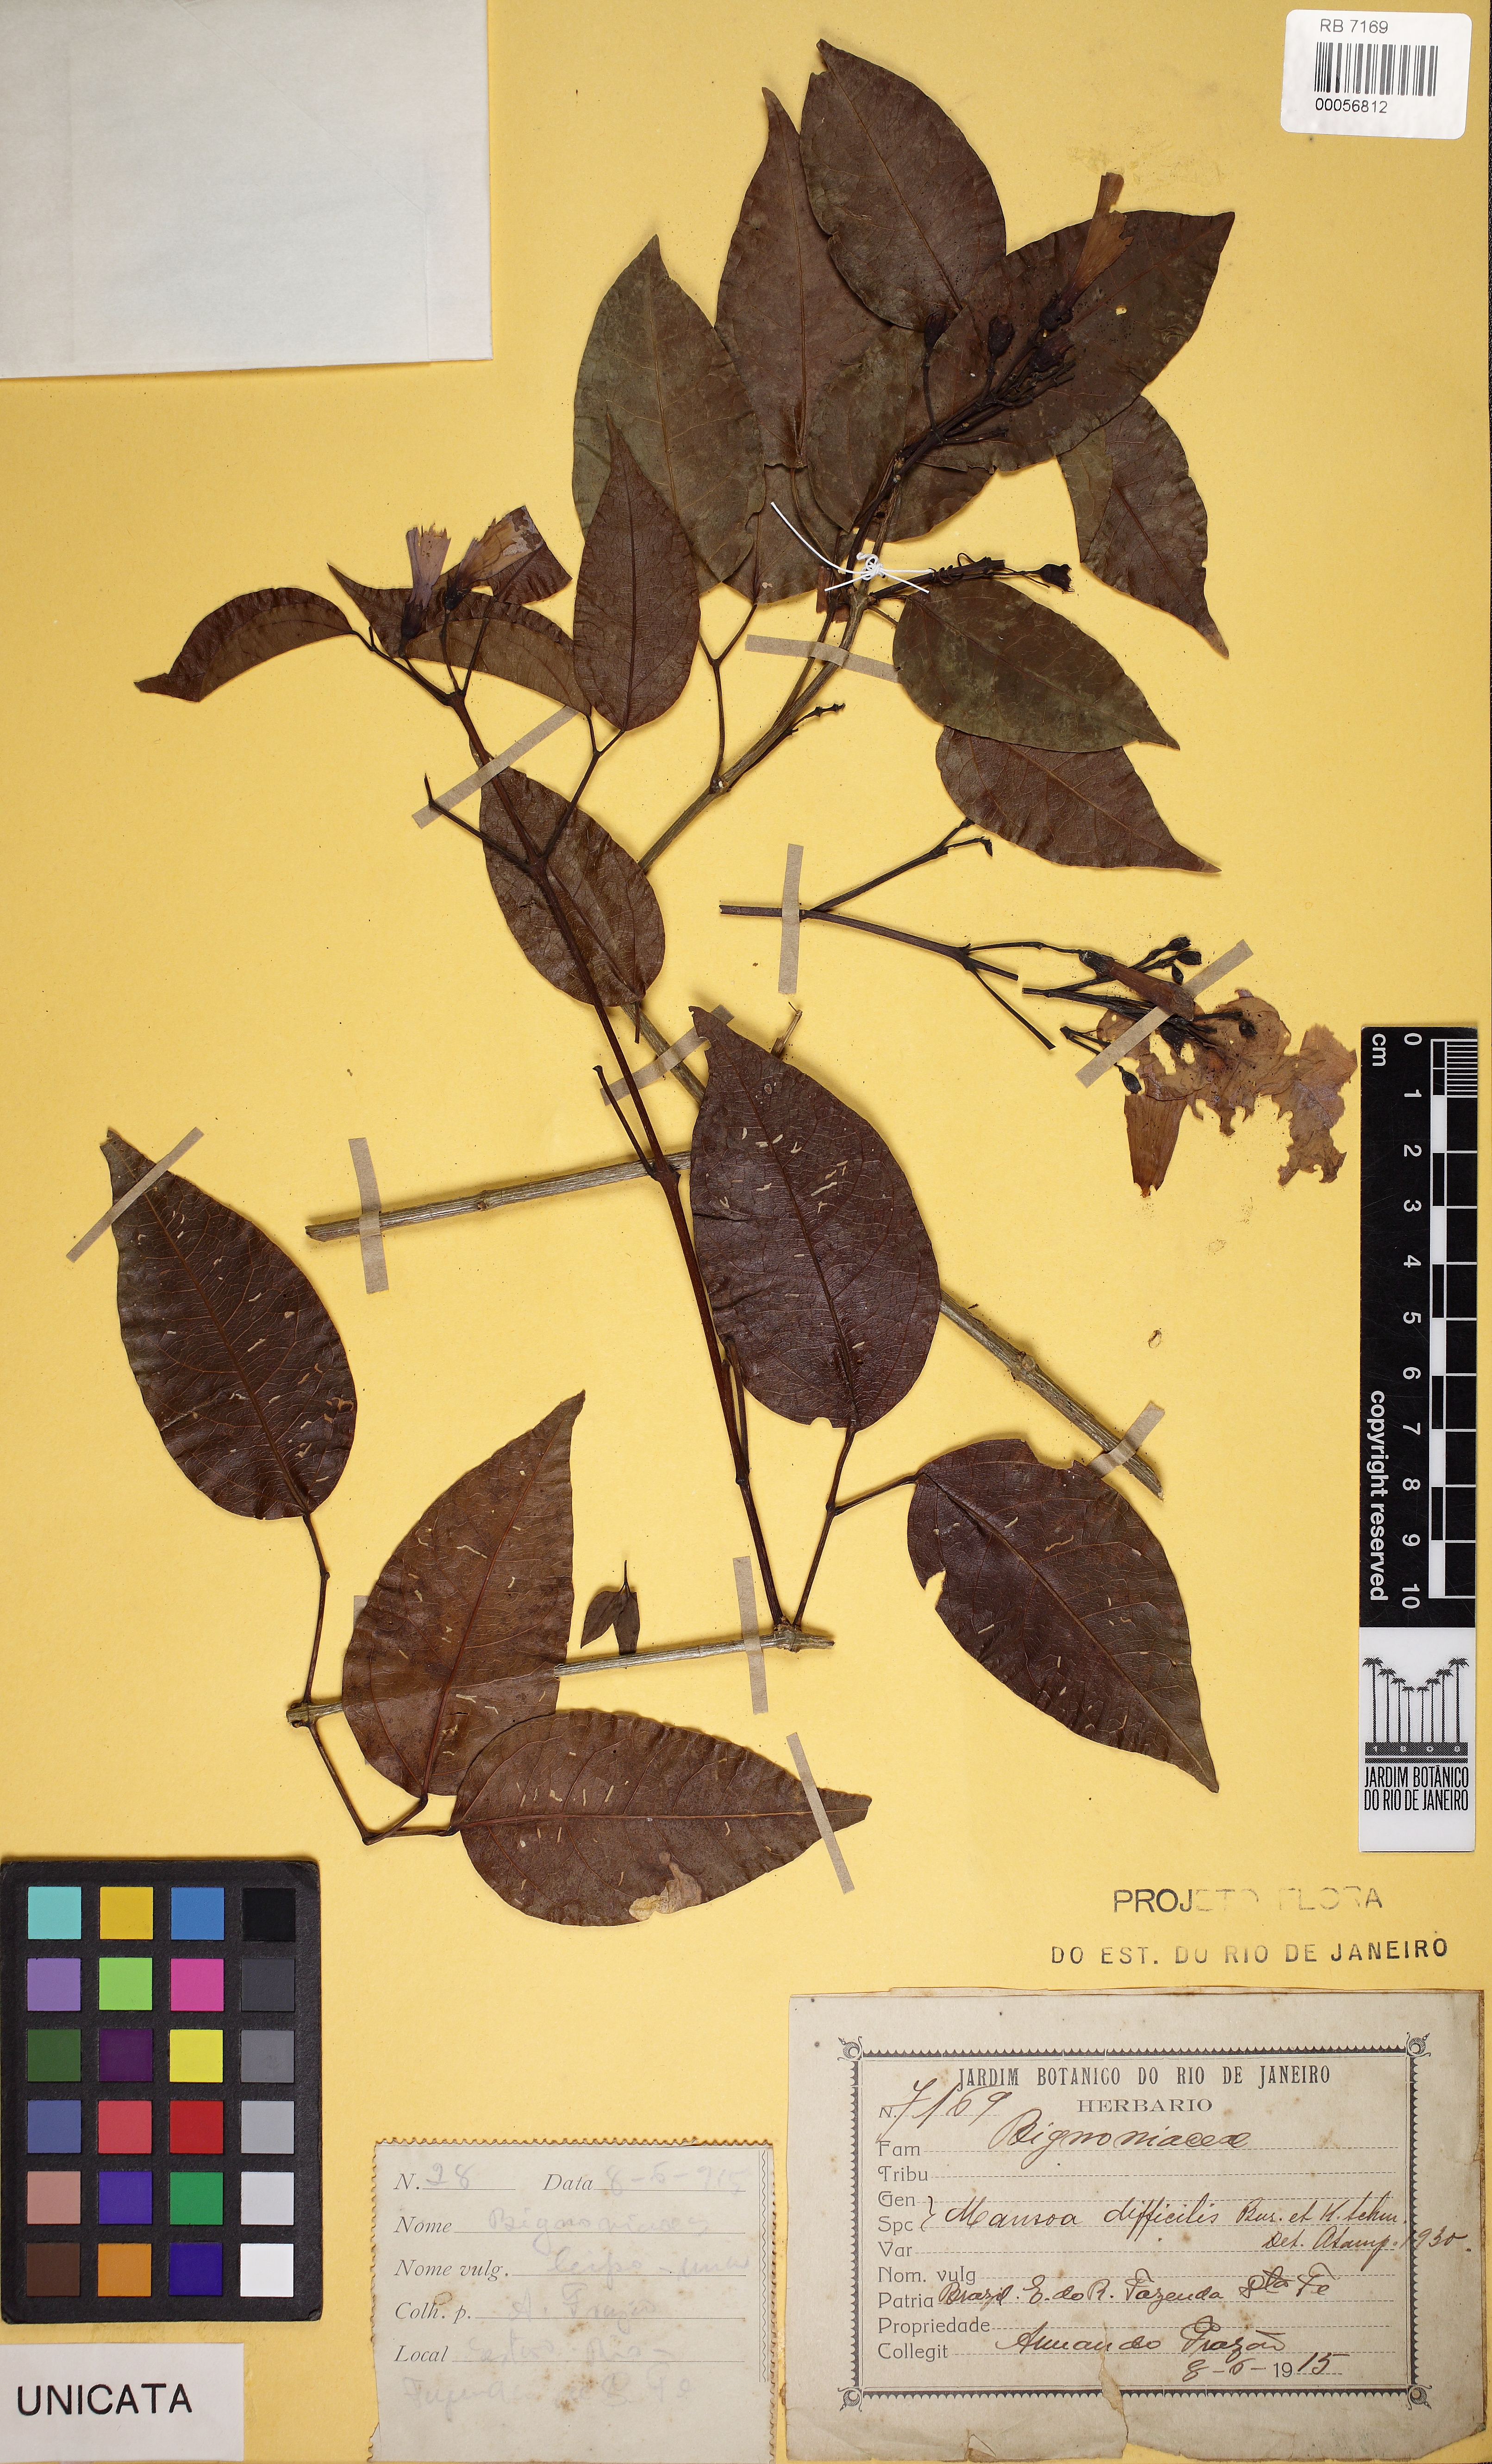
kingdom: Plantae
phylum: Tracheophyta
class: Magnoliopsida
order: Lamiales
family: Bignoniaceae
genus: Mansoa
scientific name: Mansoa difficilis
